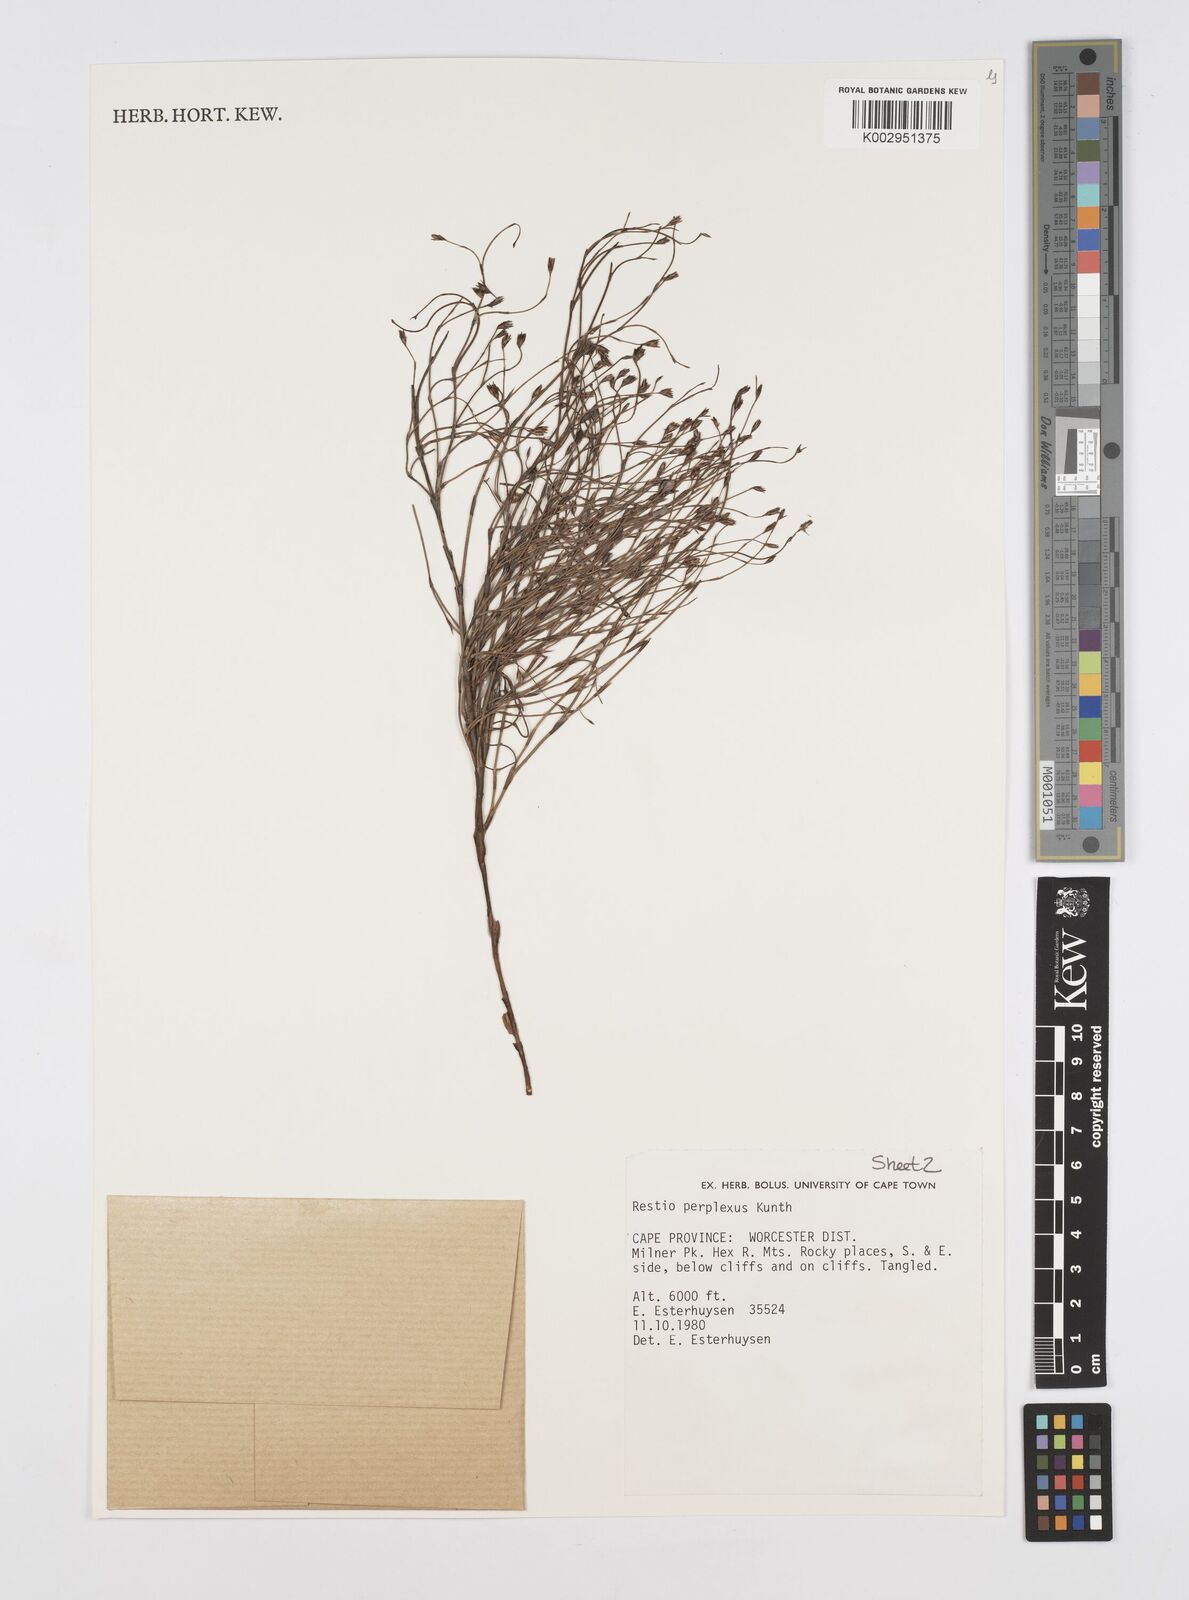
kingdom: Plantae
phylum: Tracheophyta
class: Liliopsida
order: Poales
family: Restionaceae
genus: Restio
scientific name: Restio perplexus
